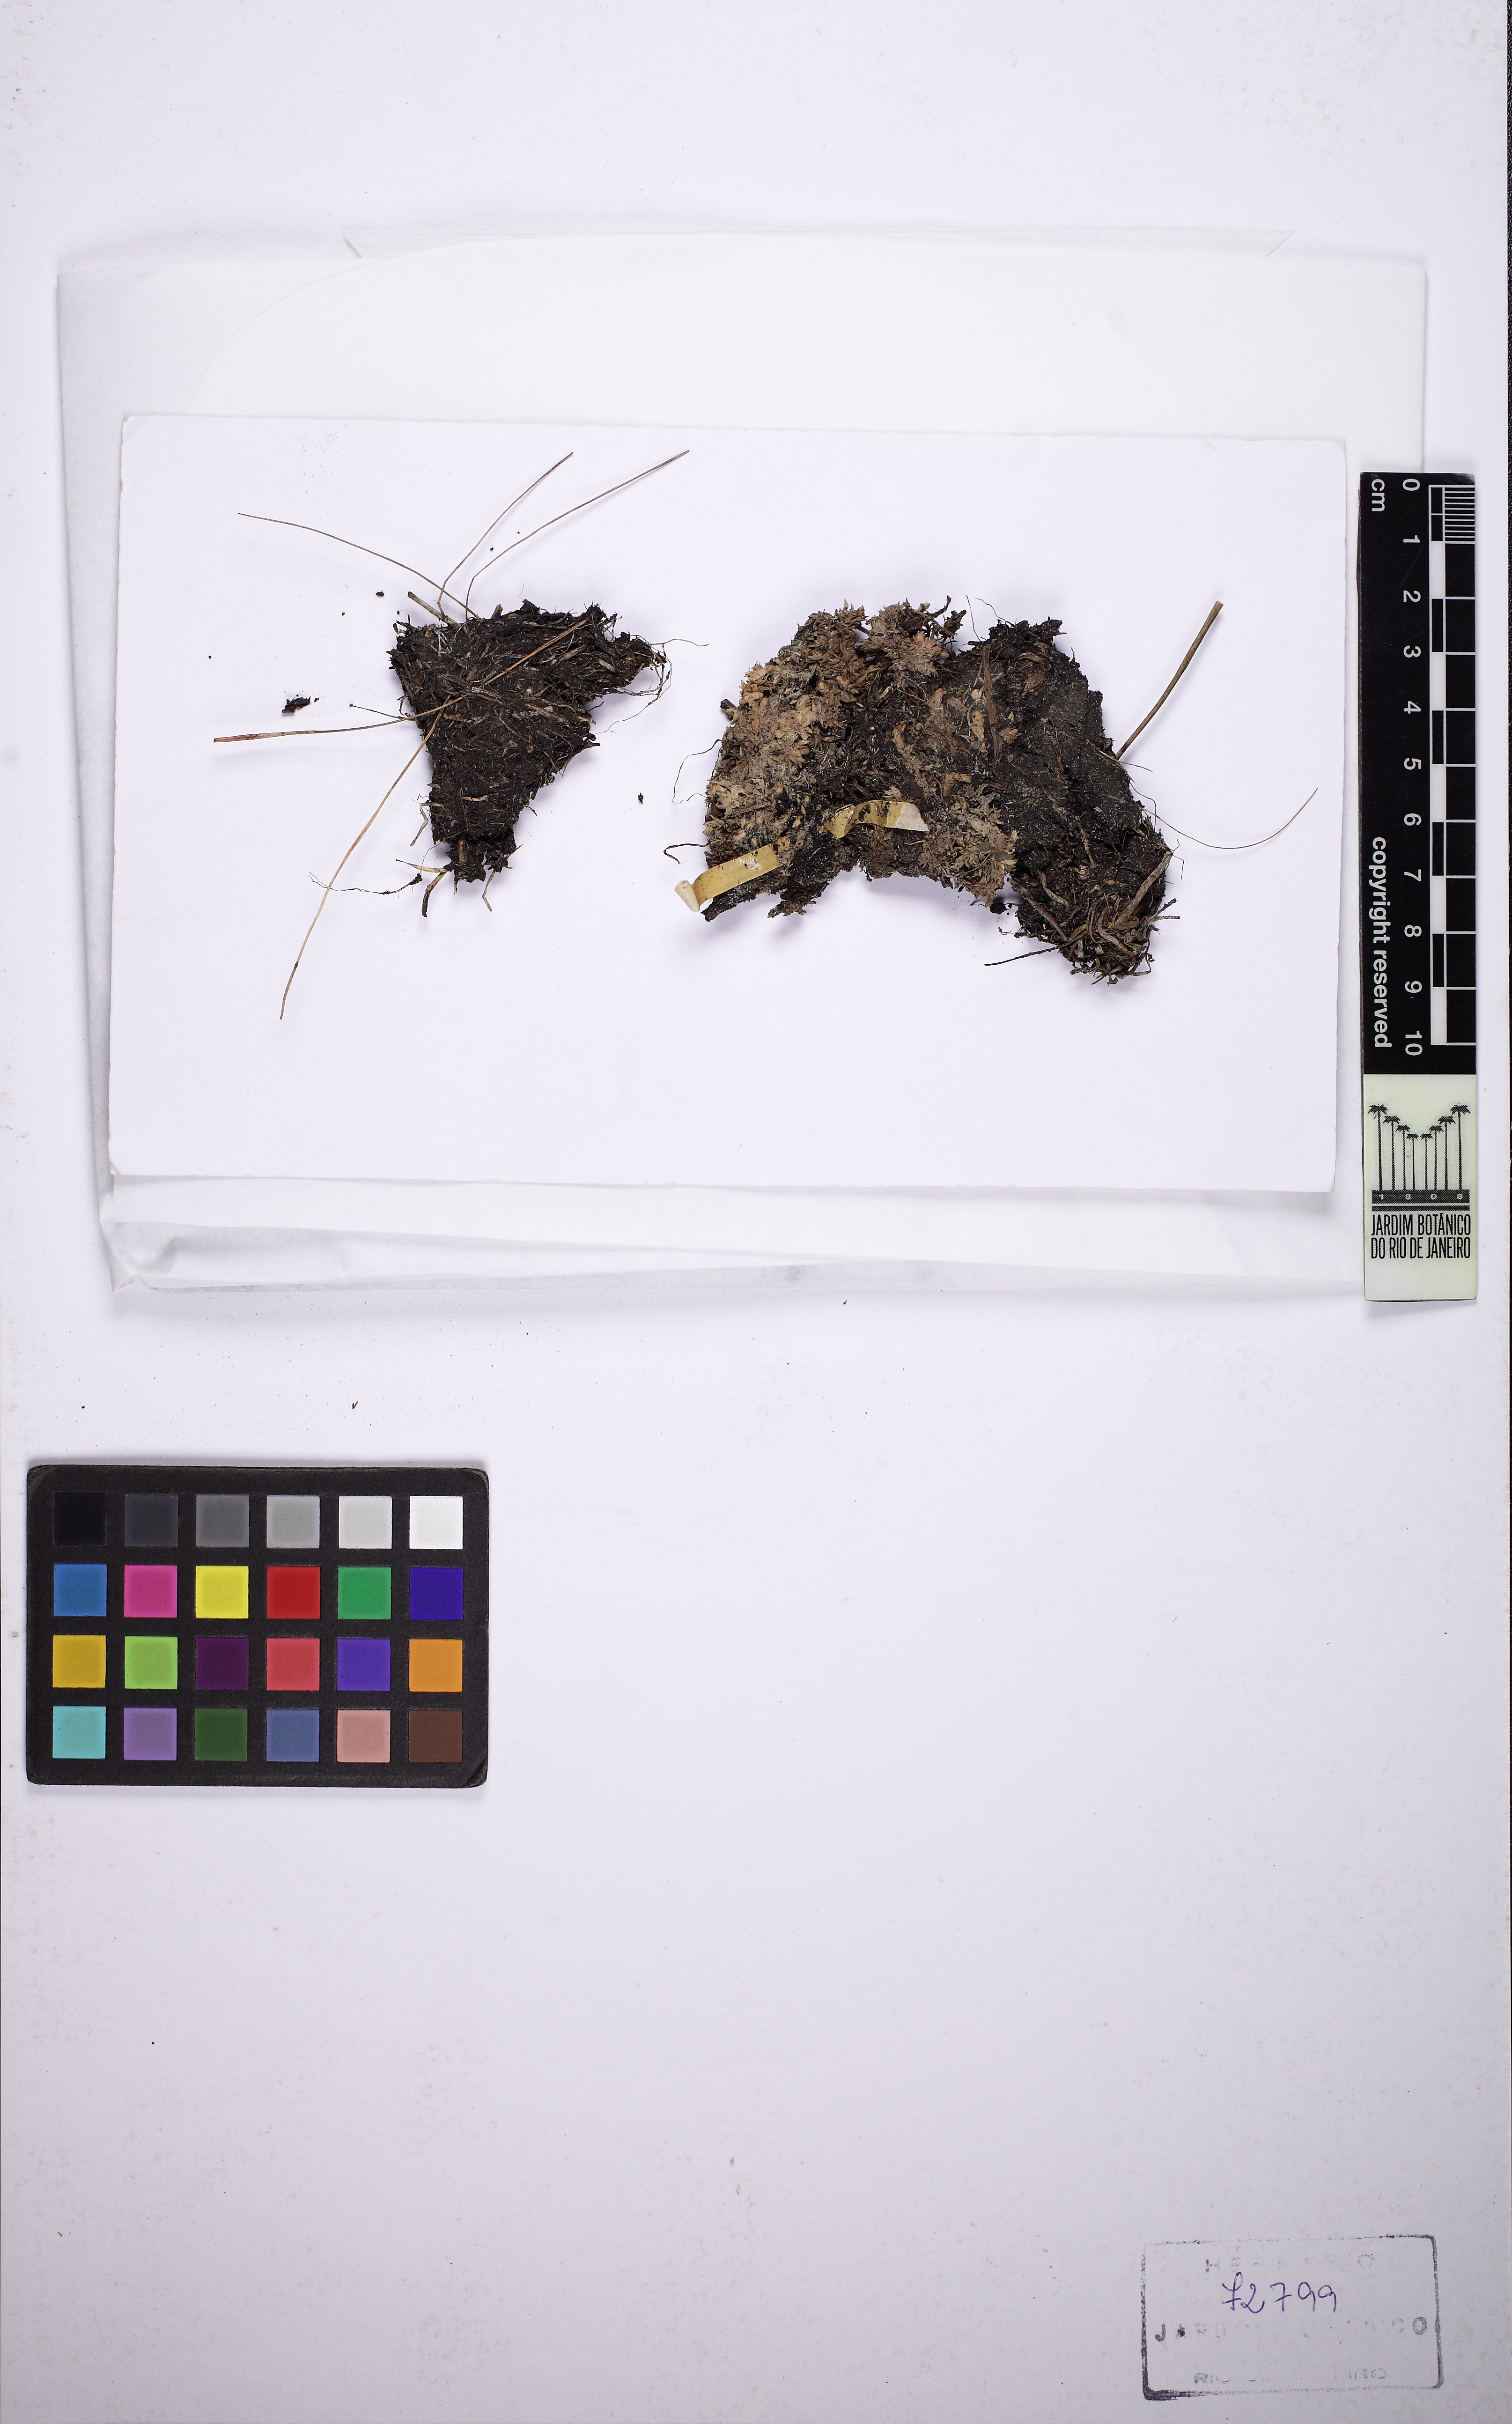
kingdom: Plantae
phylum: Tracheophyta
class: Magnoliopsida
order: Lamiales
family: Lentibulariaceae
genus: Utricularia
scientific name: Utricularia erectiflora
